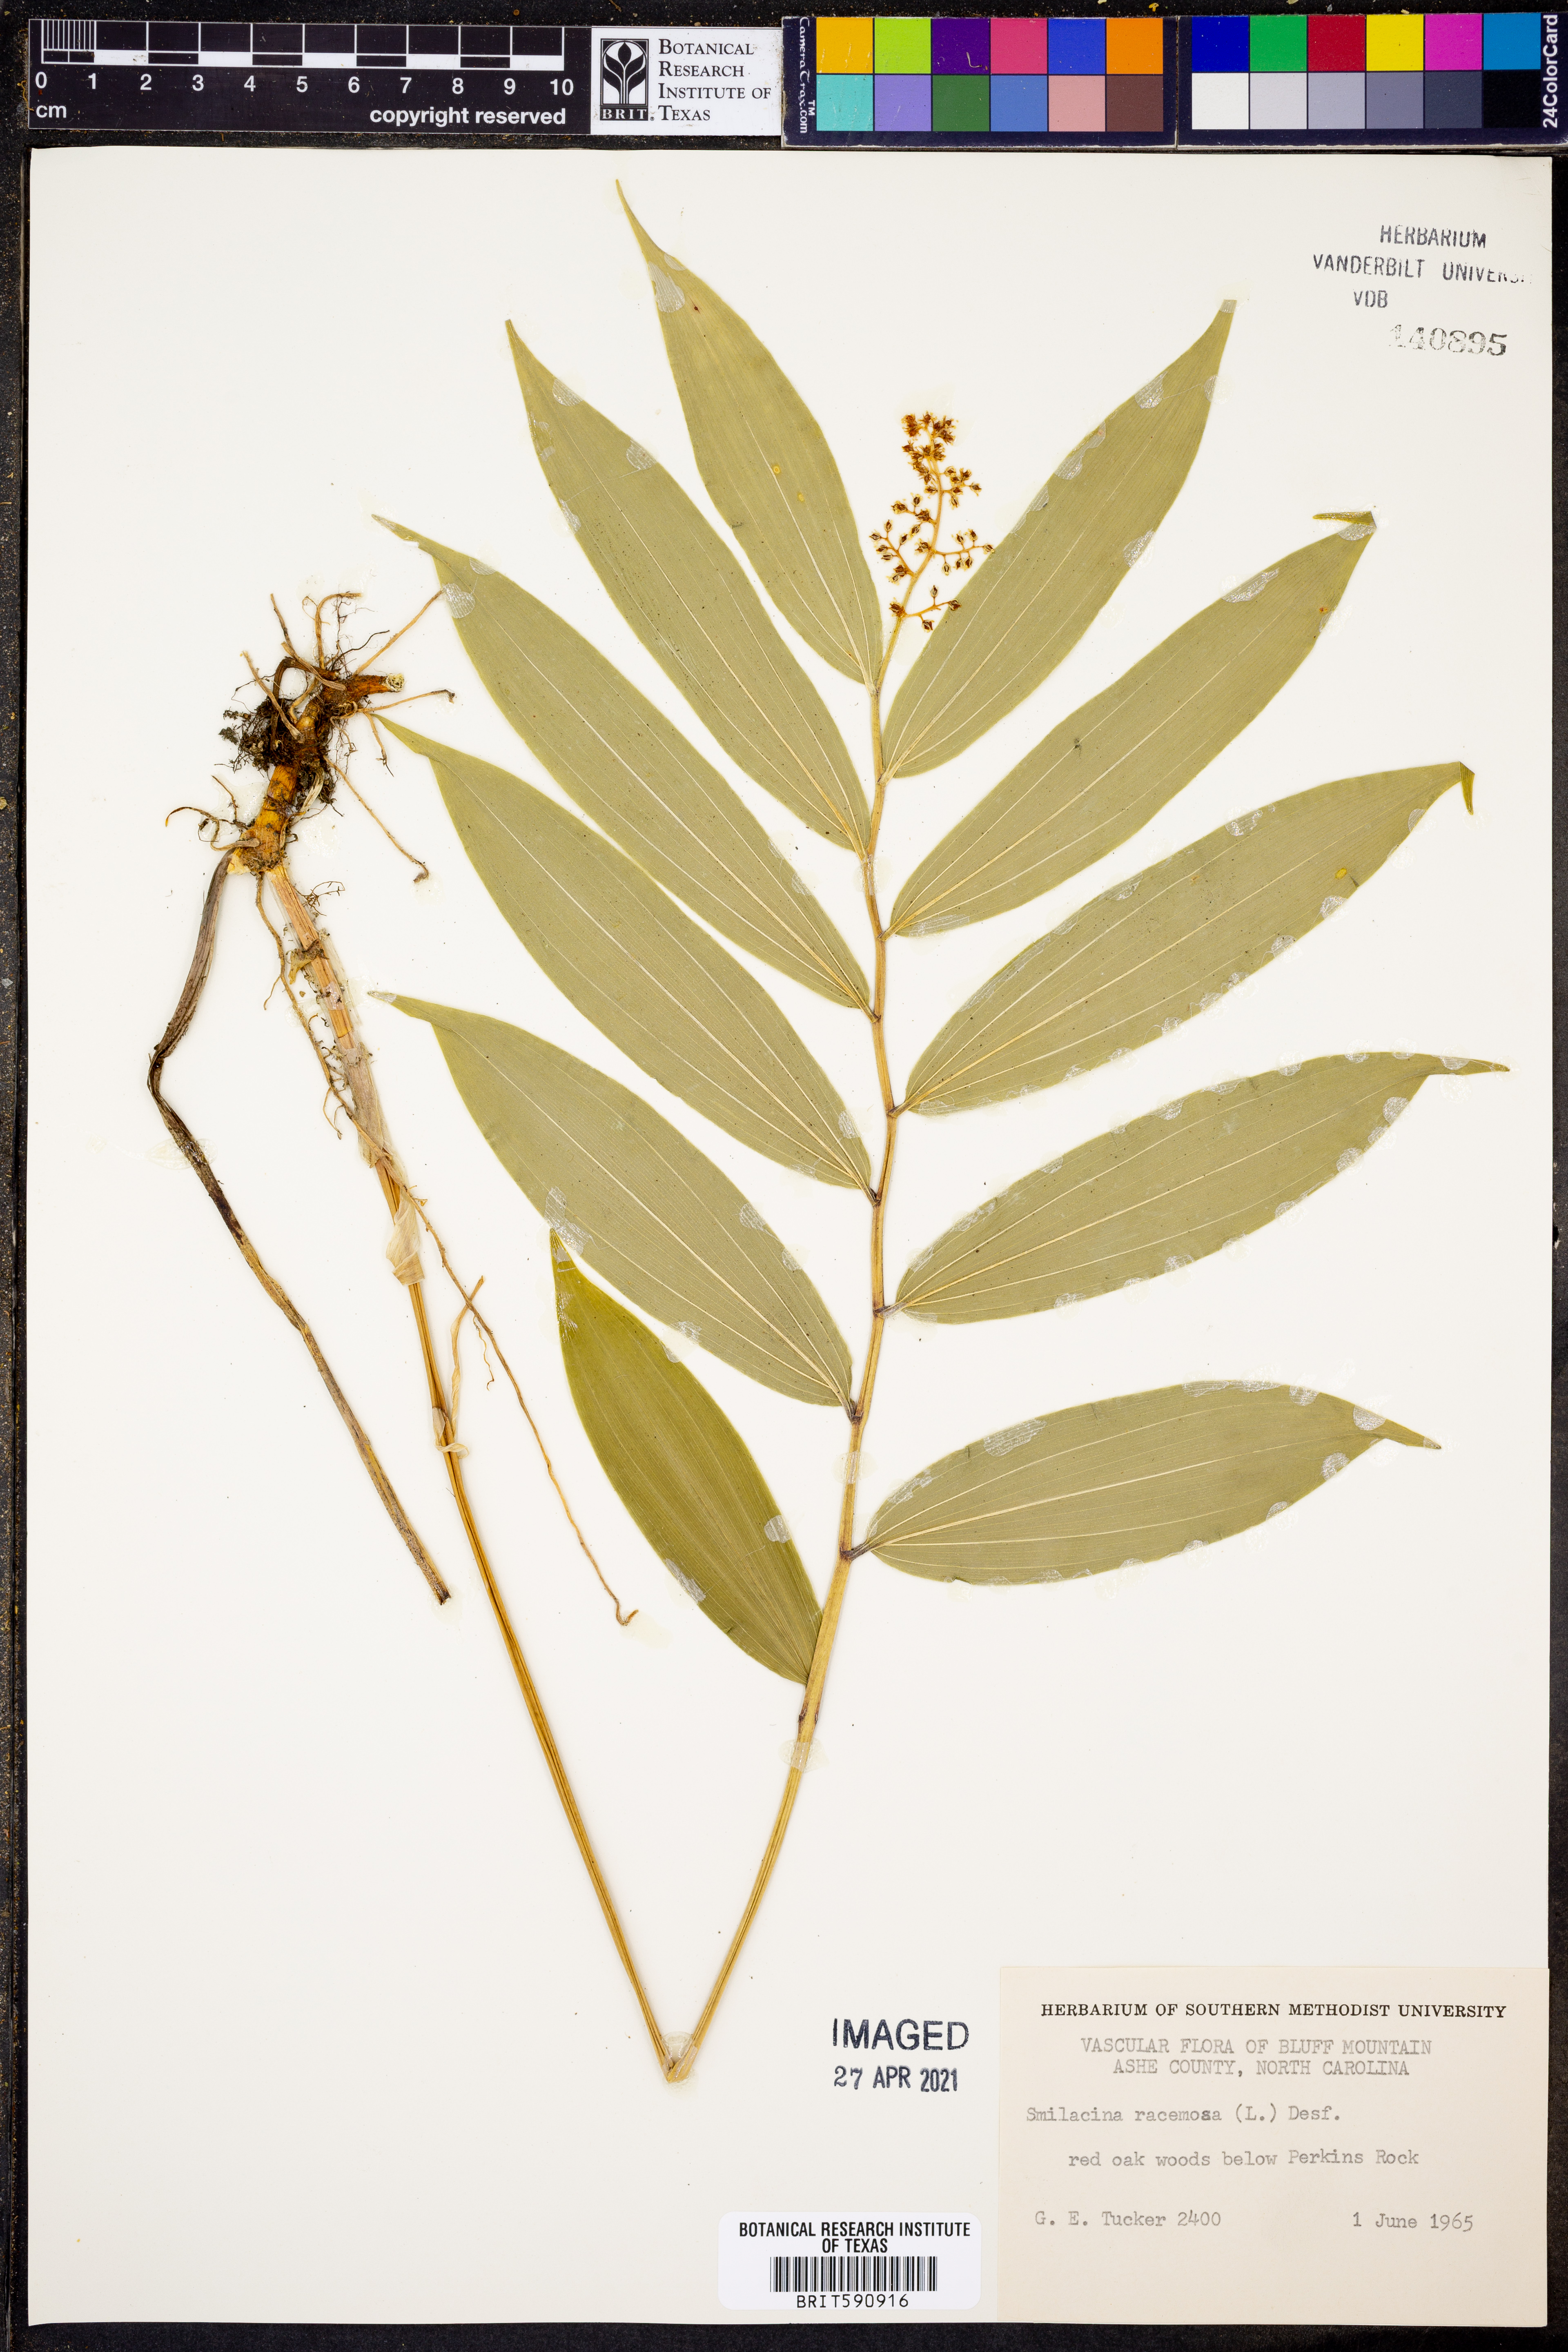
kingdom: Plantae
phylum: Tracheophyta
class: Liliopsida
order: Asparagales
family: Asparagaceae
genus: Maianthemum
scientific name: Maianthemum racemosum
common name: False spikenard
